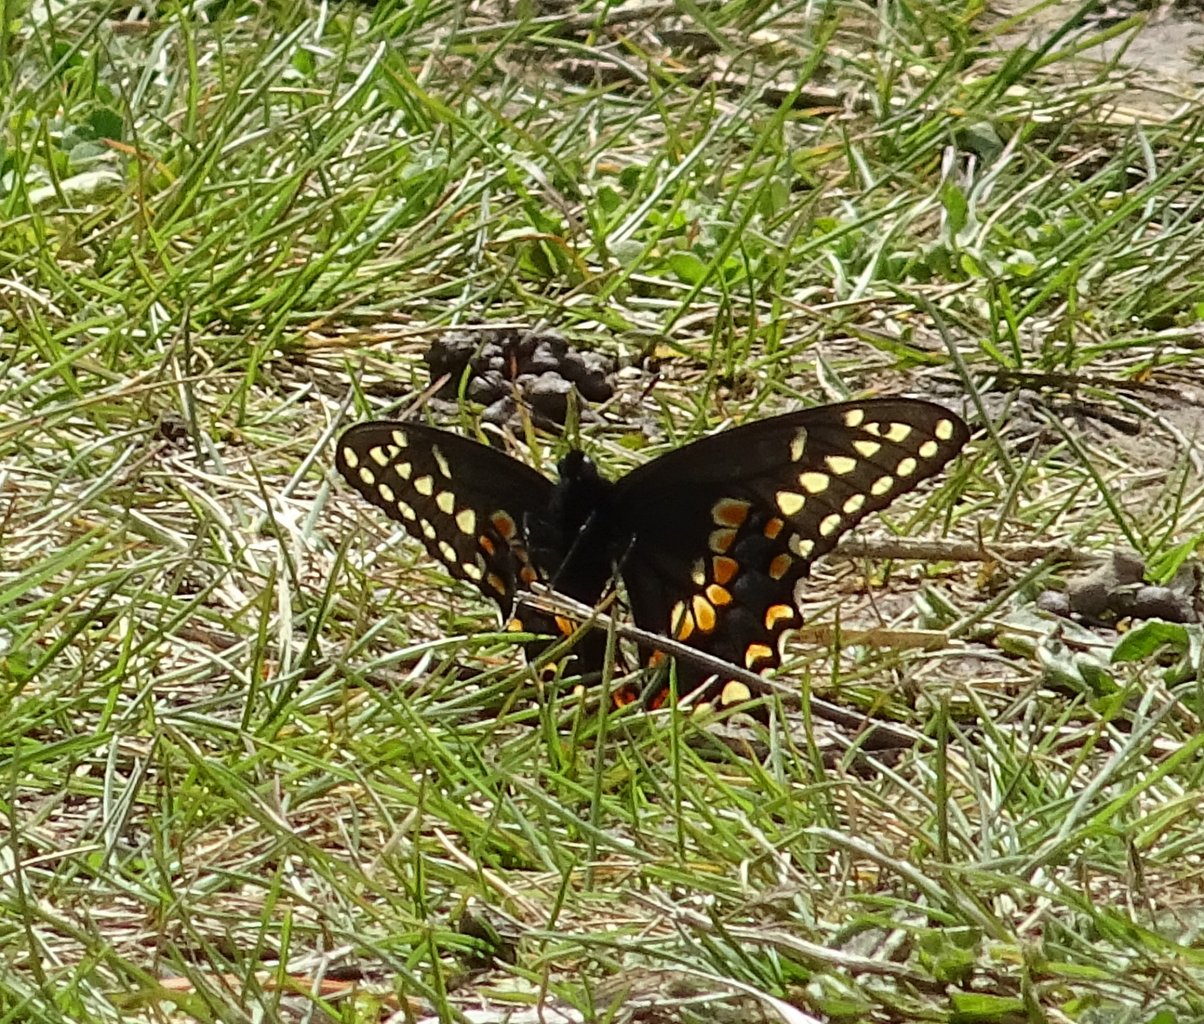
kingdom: Animalia
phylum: Arthropoda
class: Insecta
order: Lepidoptera
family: Papilionidae
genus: Papilio
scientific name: Papilio polyxenes
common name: Black Swallowtail
